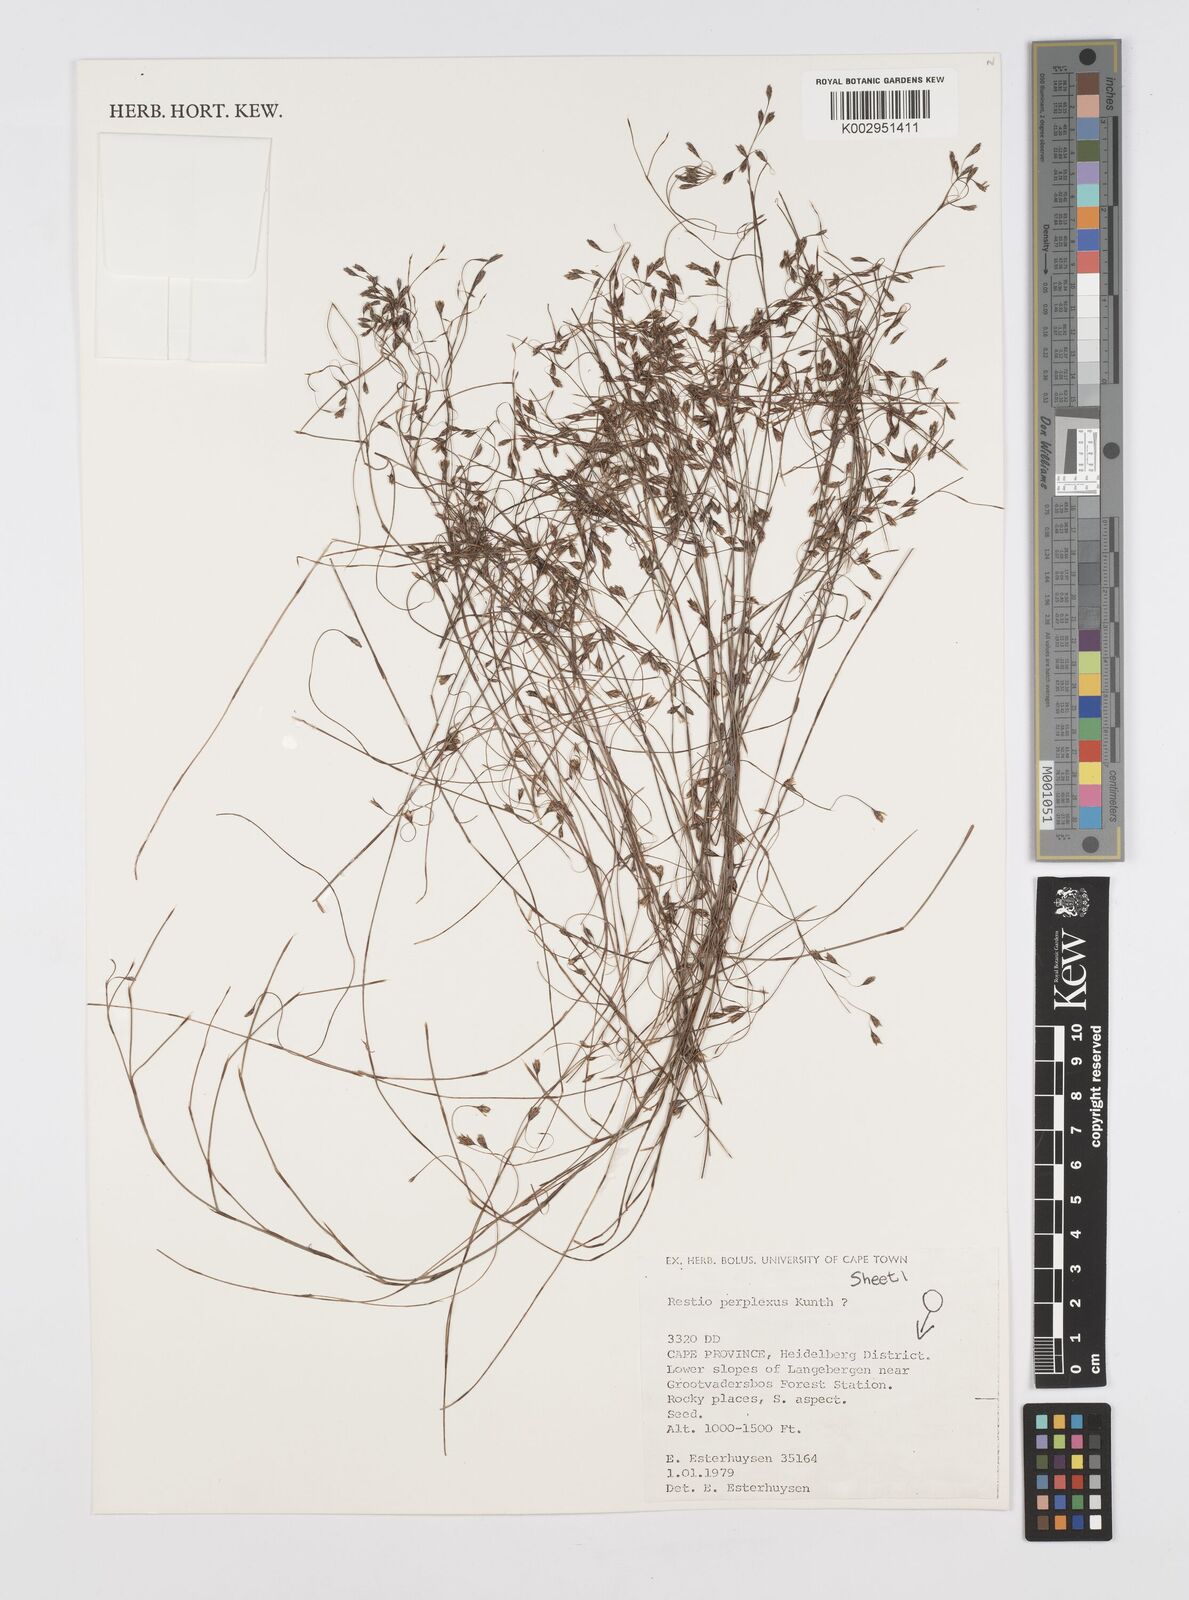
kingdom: Plantae
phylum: Tracheophyta
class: Liliopsida
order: Poales
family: Restionaceae
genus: Restio
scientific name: Restio perplexus
